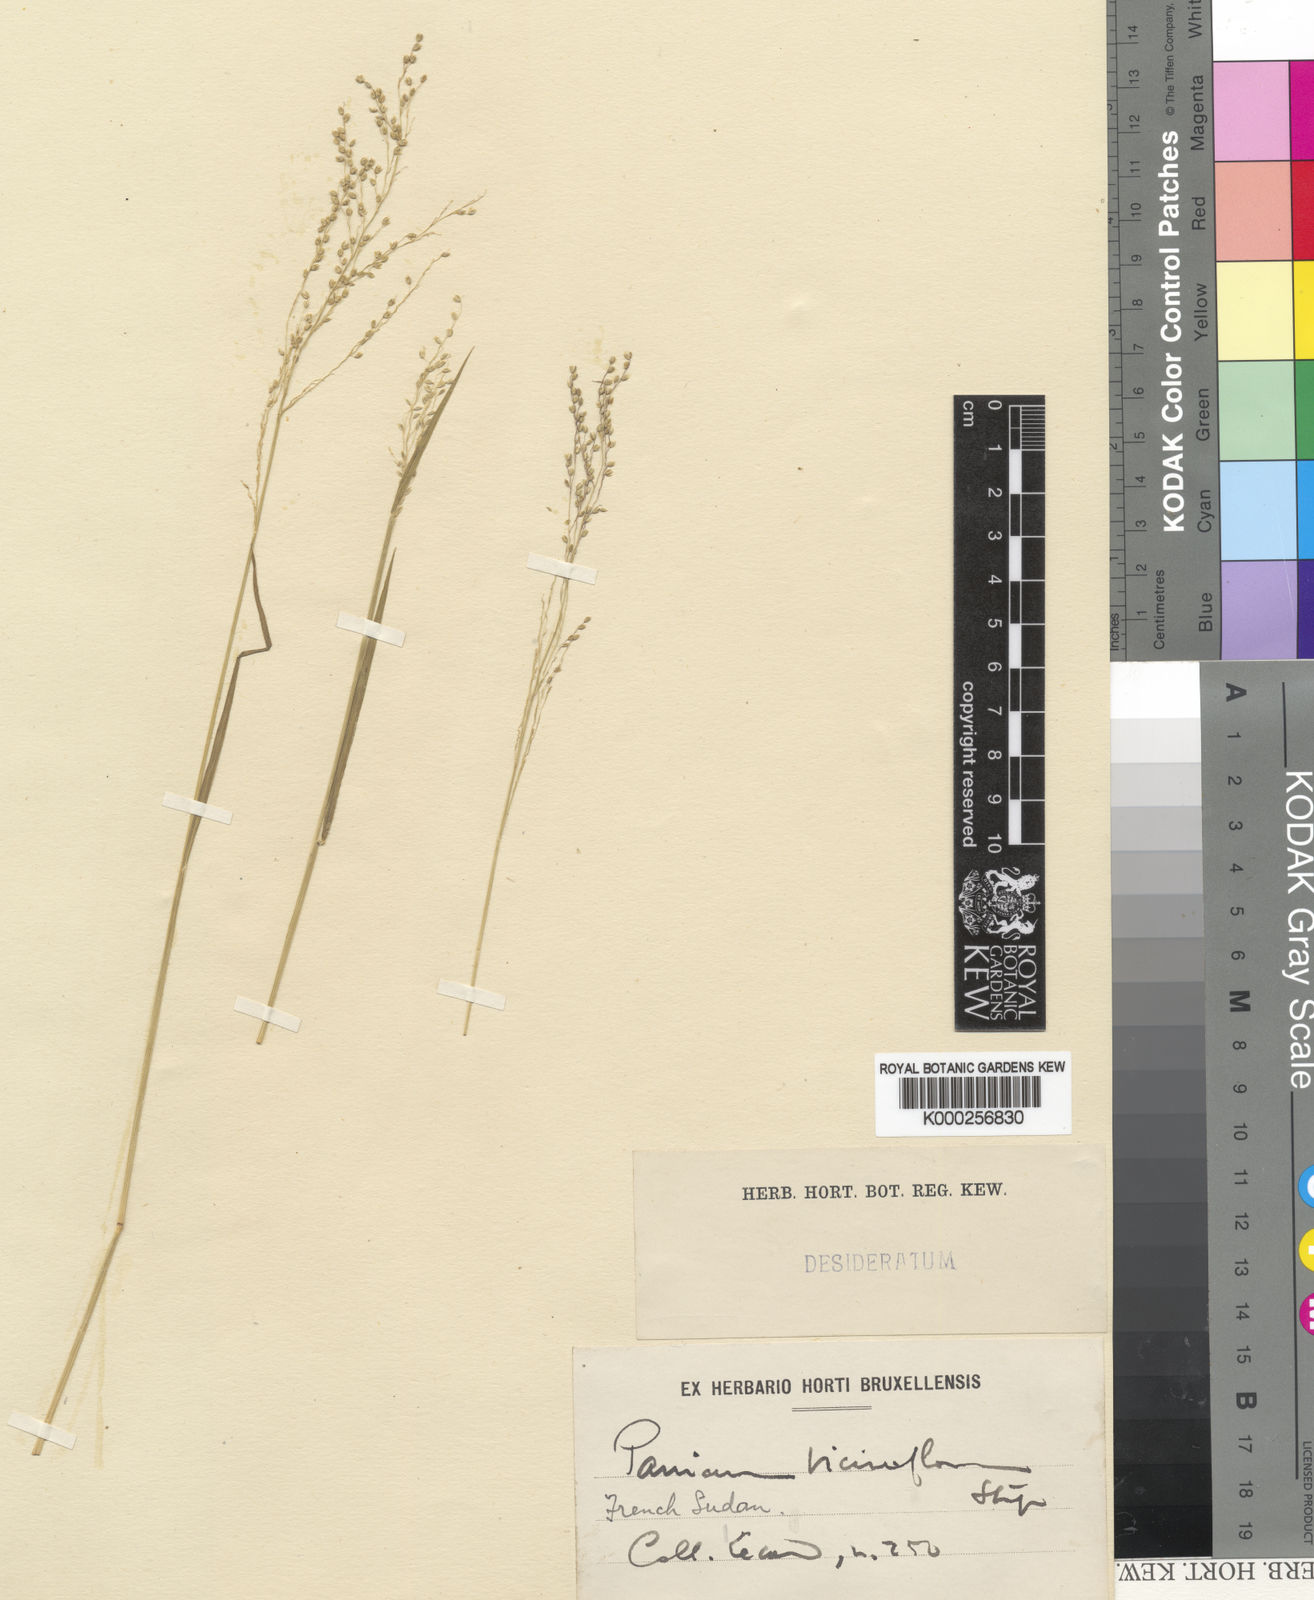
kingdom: Plantae
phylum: Tracheophyta
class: Liliopsida
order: Poales
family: Poaceae
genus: Panicum
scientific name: Panicum curviflorum
